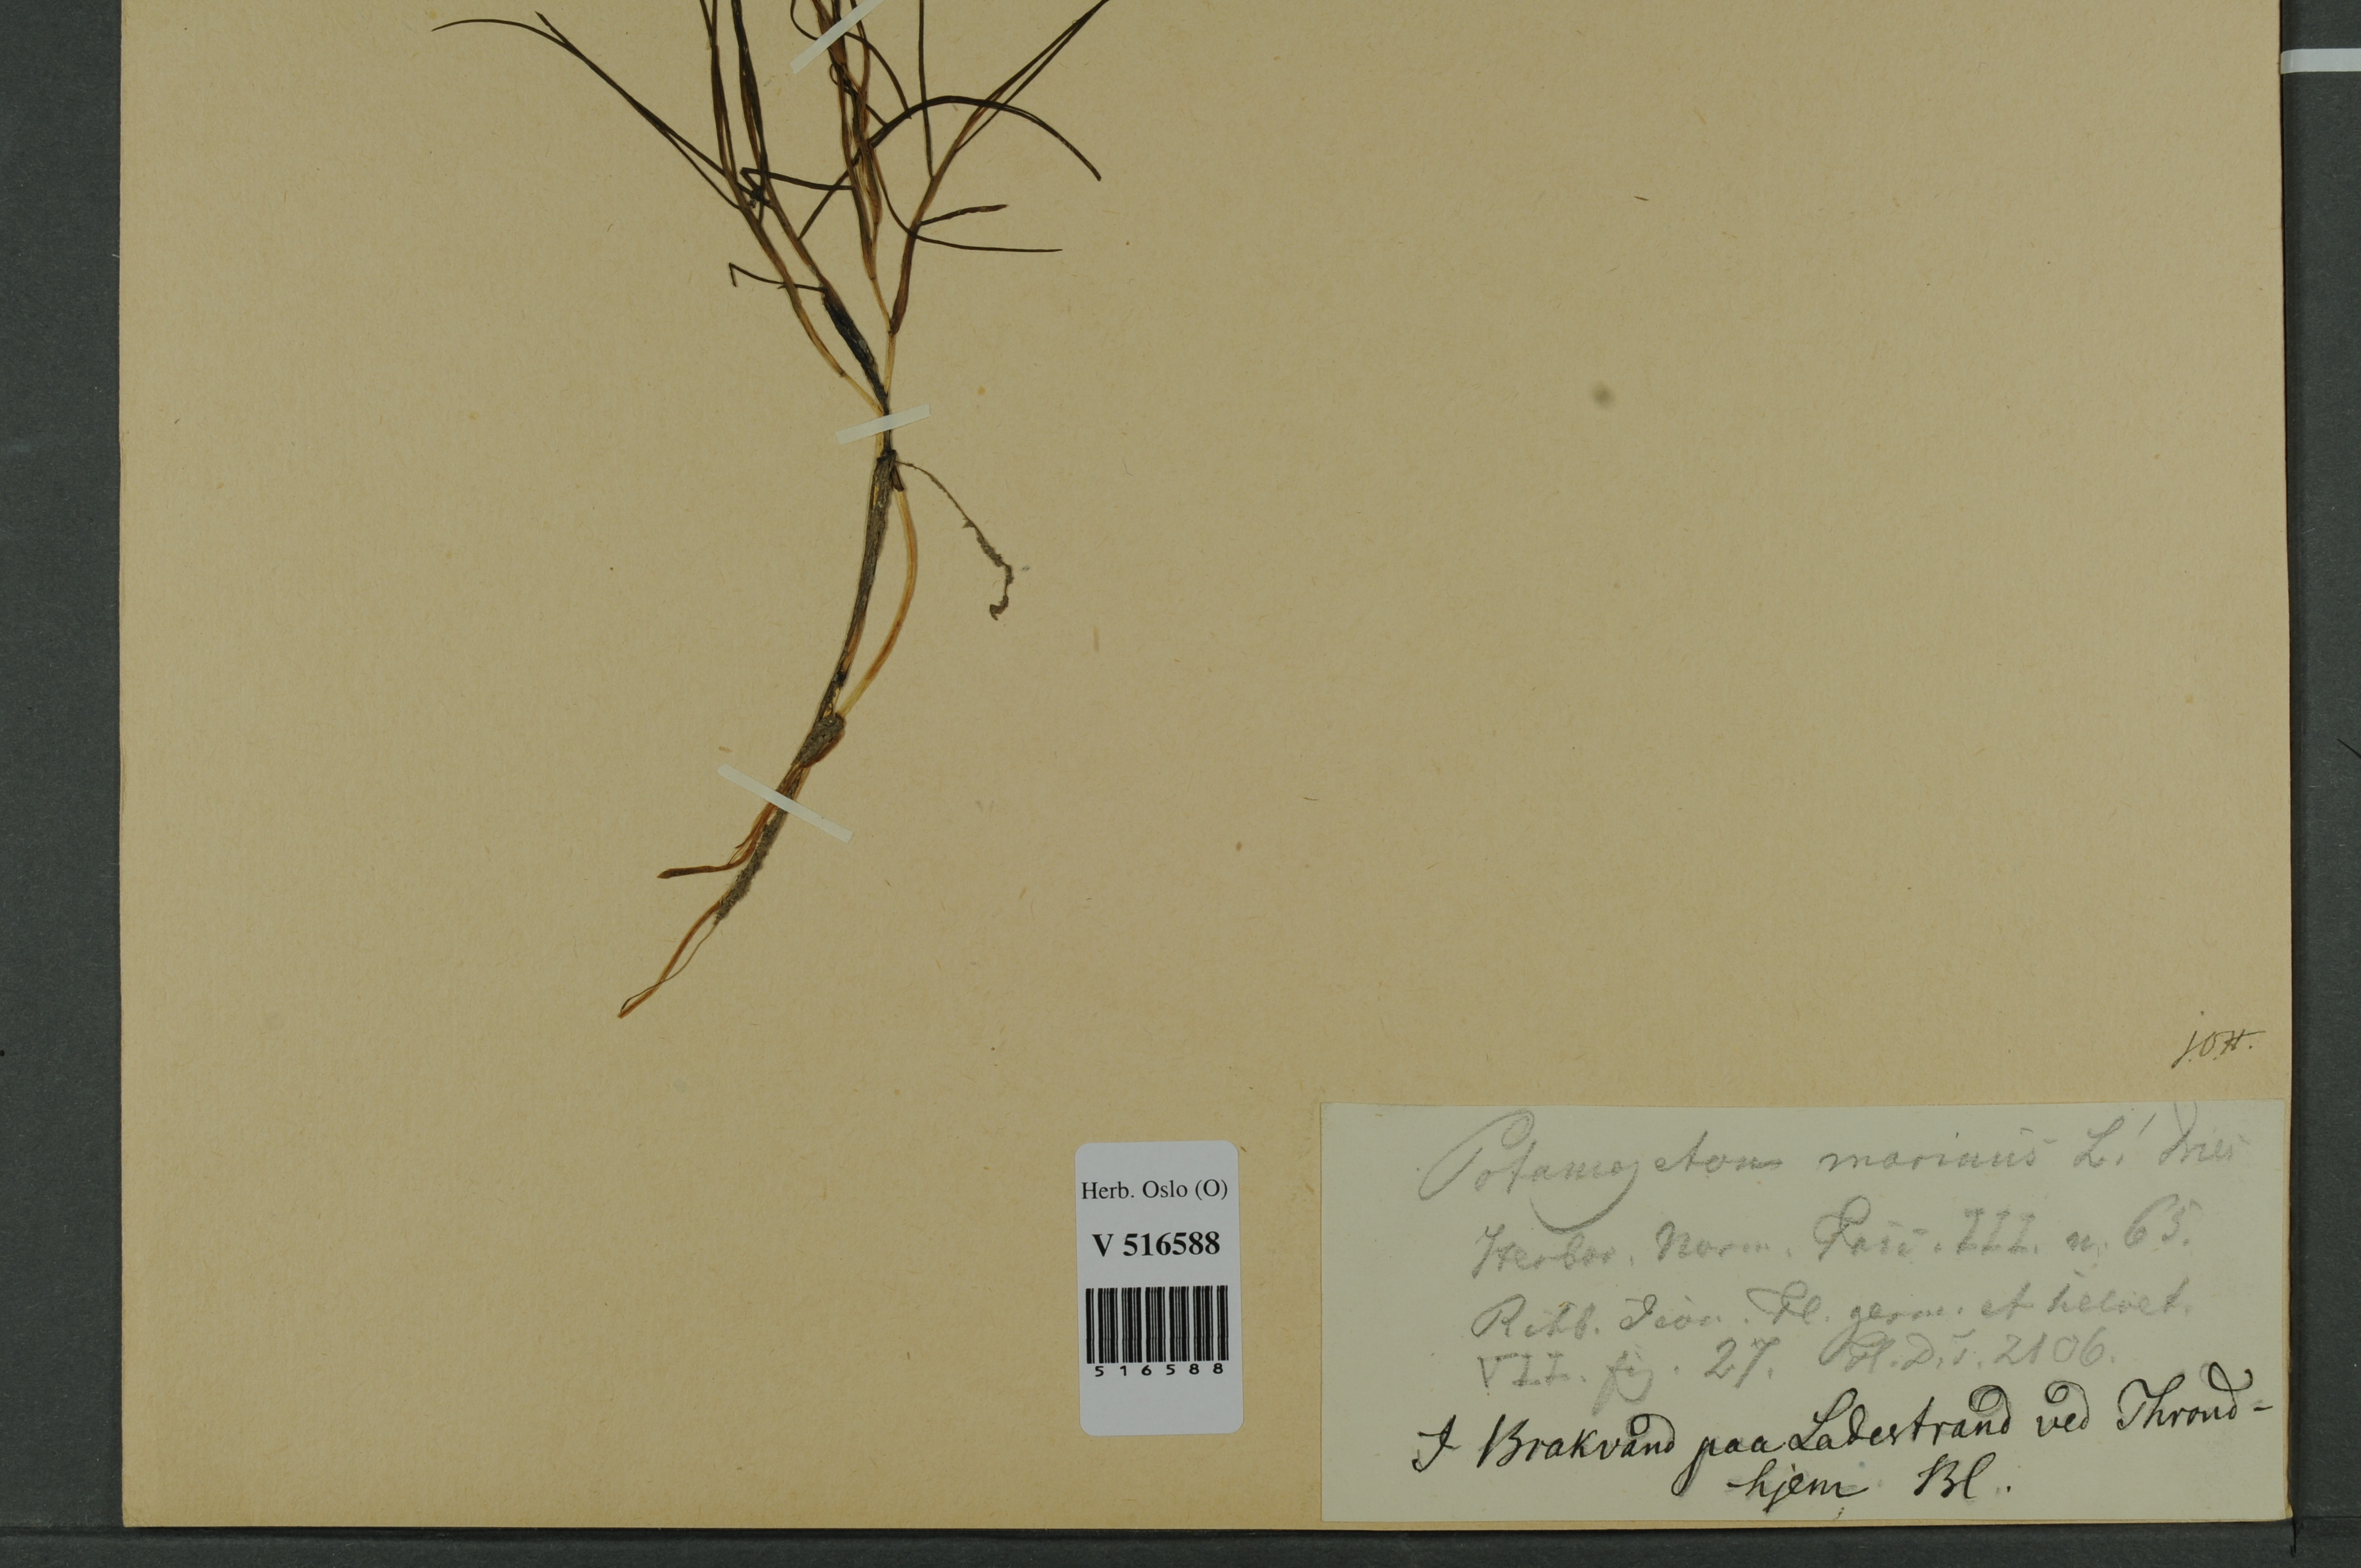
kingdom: Plantae
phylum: Tracheophyta
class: Liliopsida
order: Alismatales
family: Potamogetonaceae
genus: Stuckenia
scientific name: Stuckenia filiformis
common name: Alpine thread-leaved pondweed
